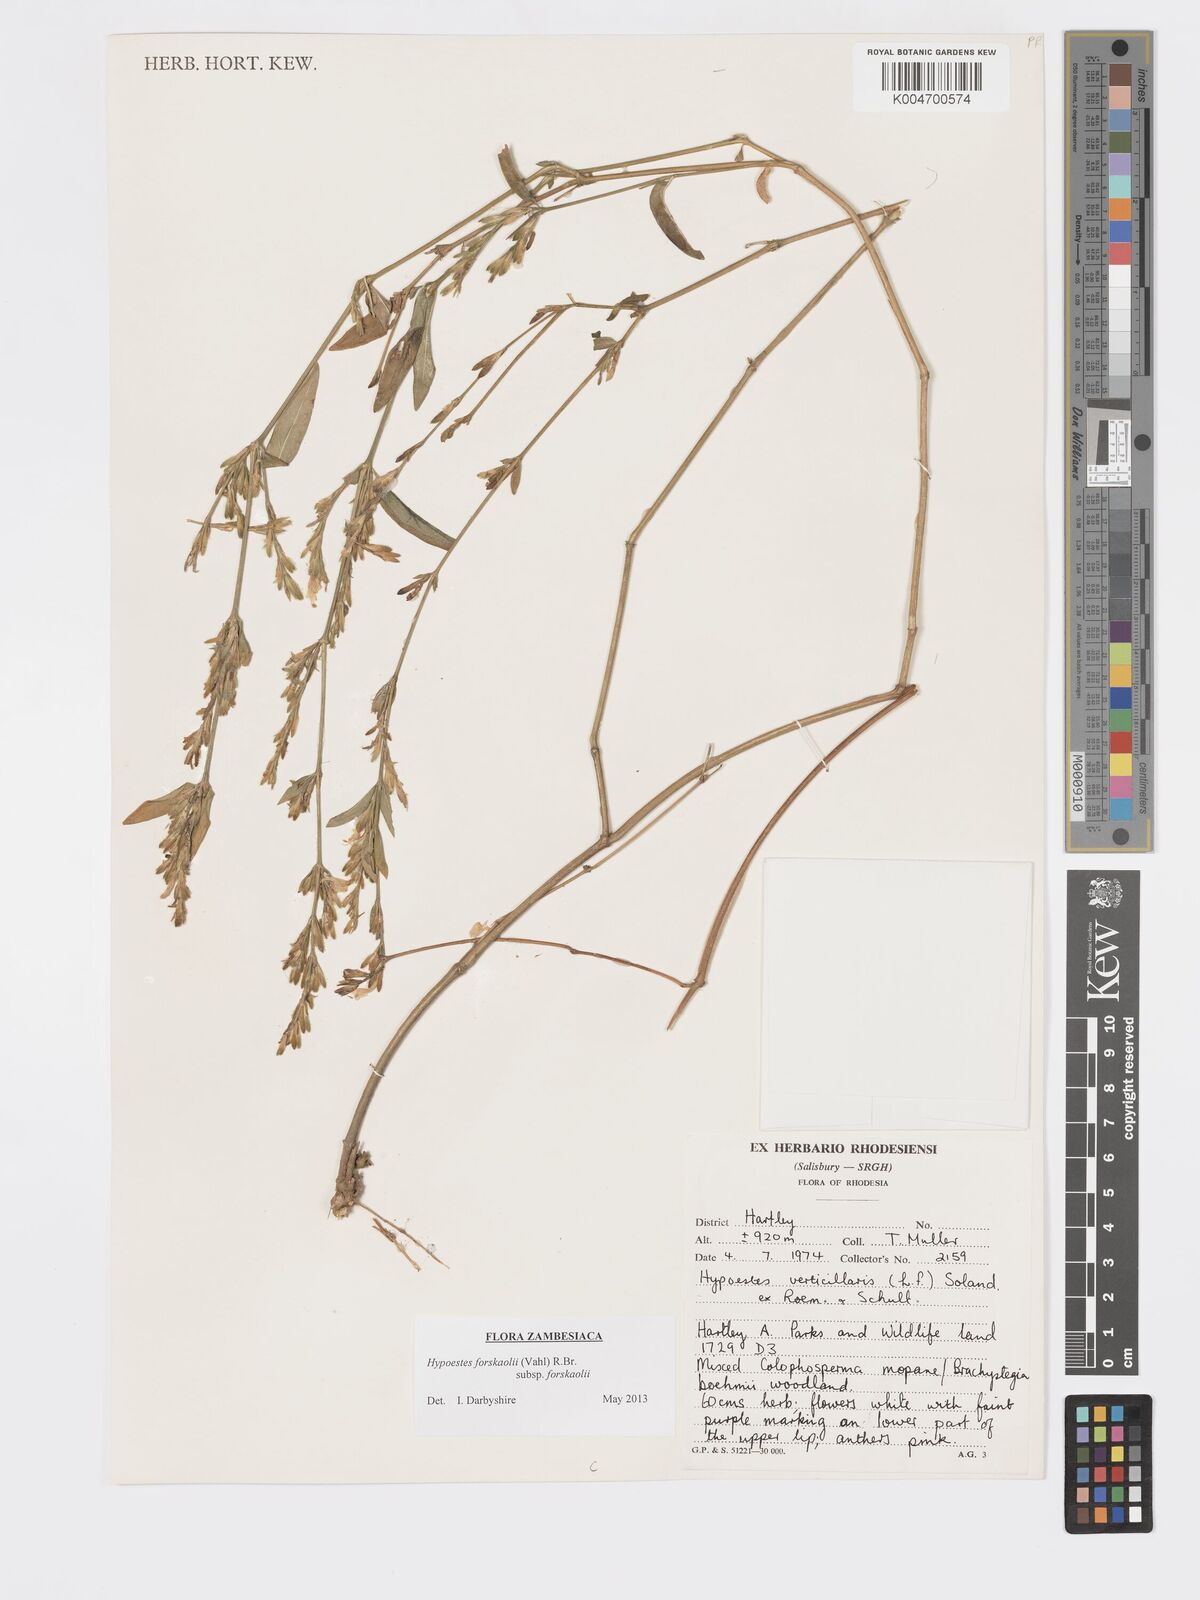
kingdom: Plantae
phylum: Tracheophyta
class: Magnoliopsida
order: Lamiales
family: Acanthaceae
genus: Hypoestes
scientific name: Hypoestes forskaolii
